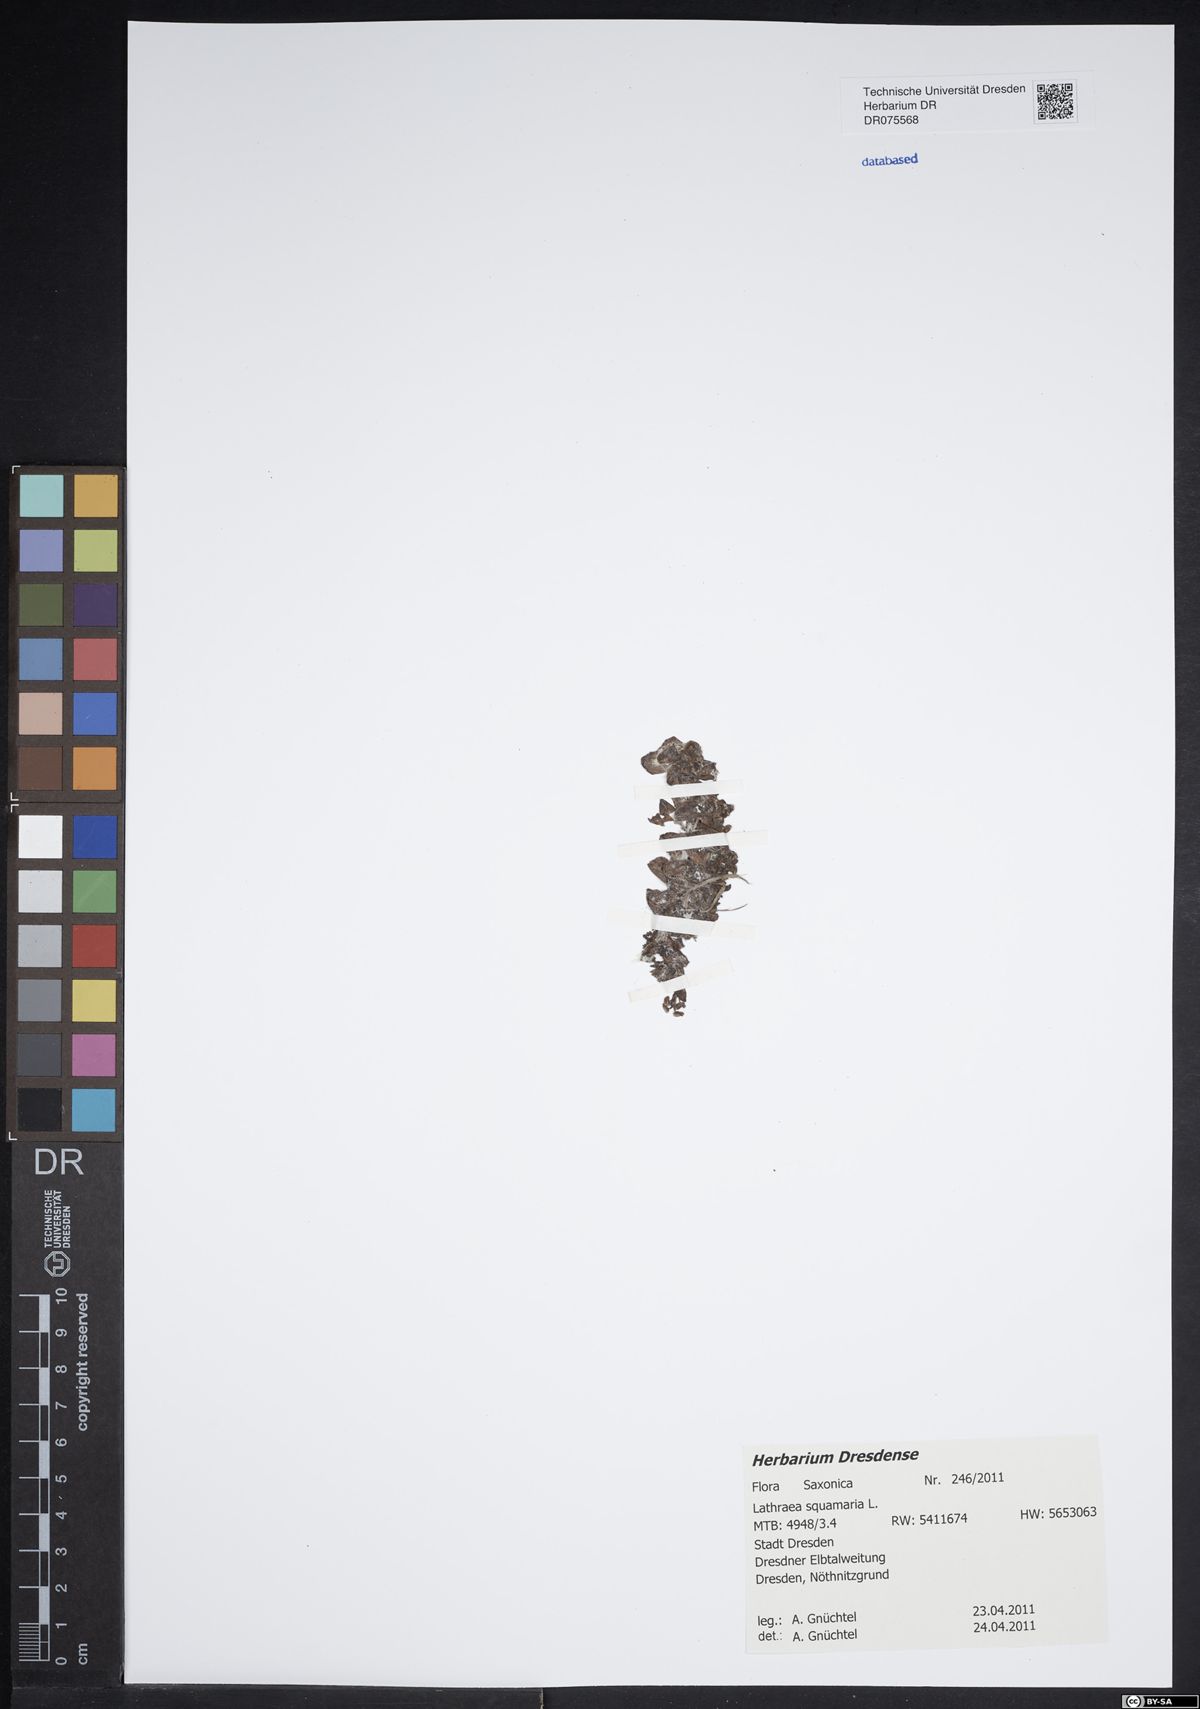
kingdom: Plantae
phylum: Tracheophyta
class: Magnoliopsida
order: Lamiales
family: Orobanchaceae
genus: Lathraea
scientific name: Lathraea squamaria
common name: Toothwort
